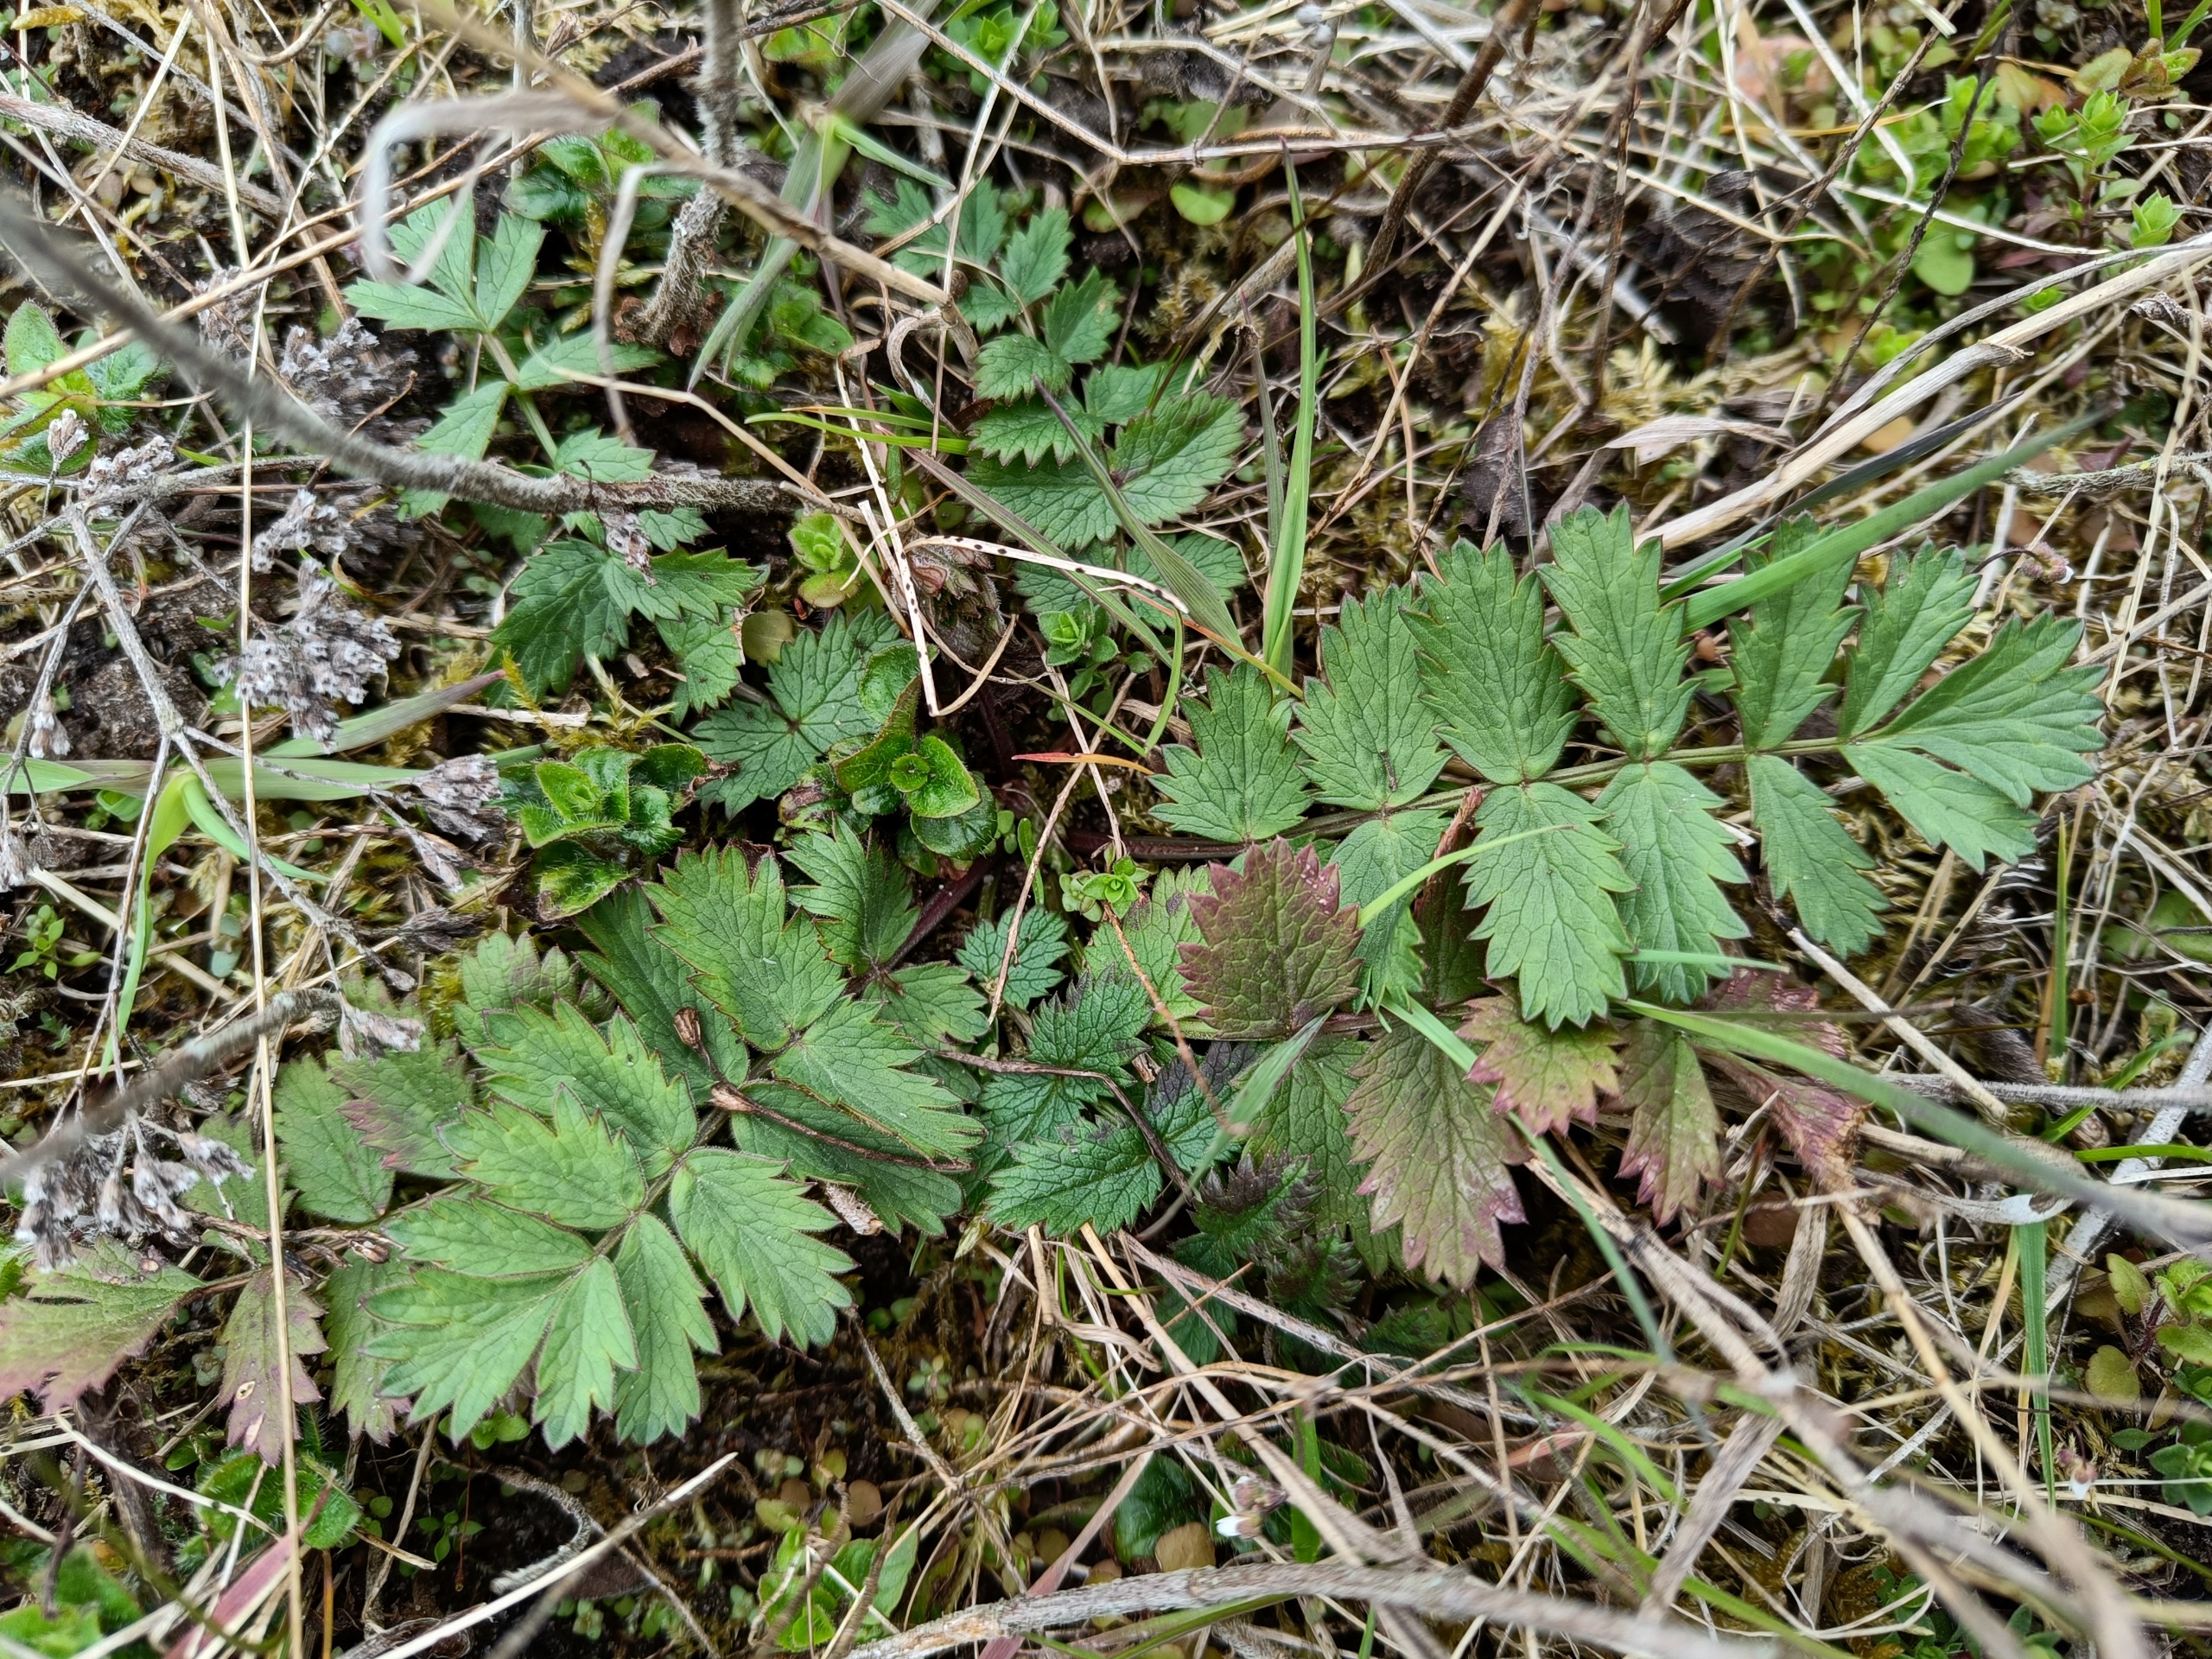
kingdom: Plantae
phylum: Tracheophyta
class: Magnoliopsida
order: Apiales
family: Apiaceae
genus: Pimpinella
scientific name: Pimpinella saxifraga
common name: Almindelig pimpinelle
